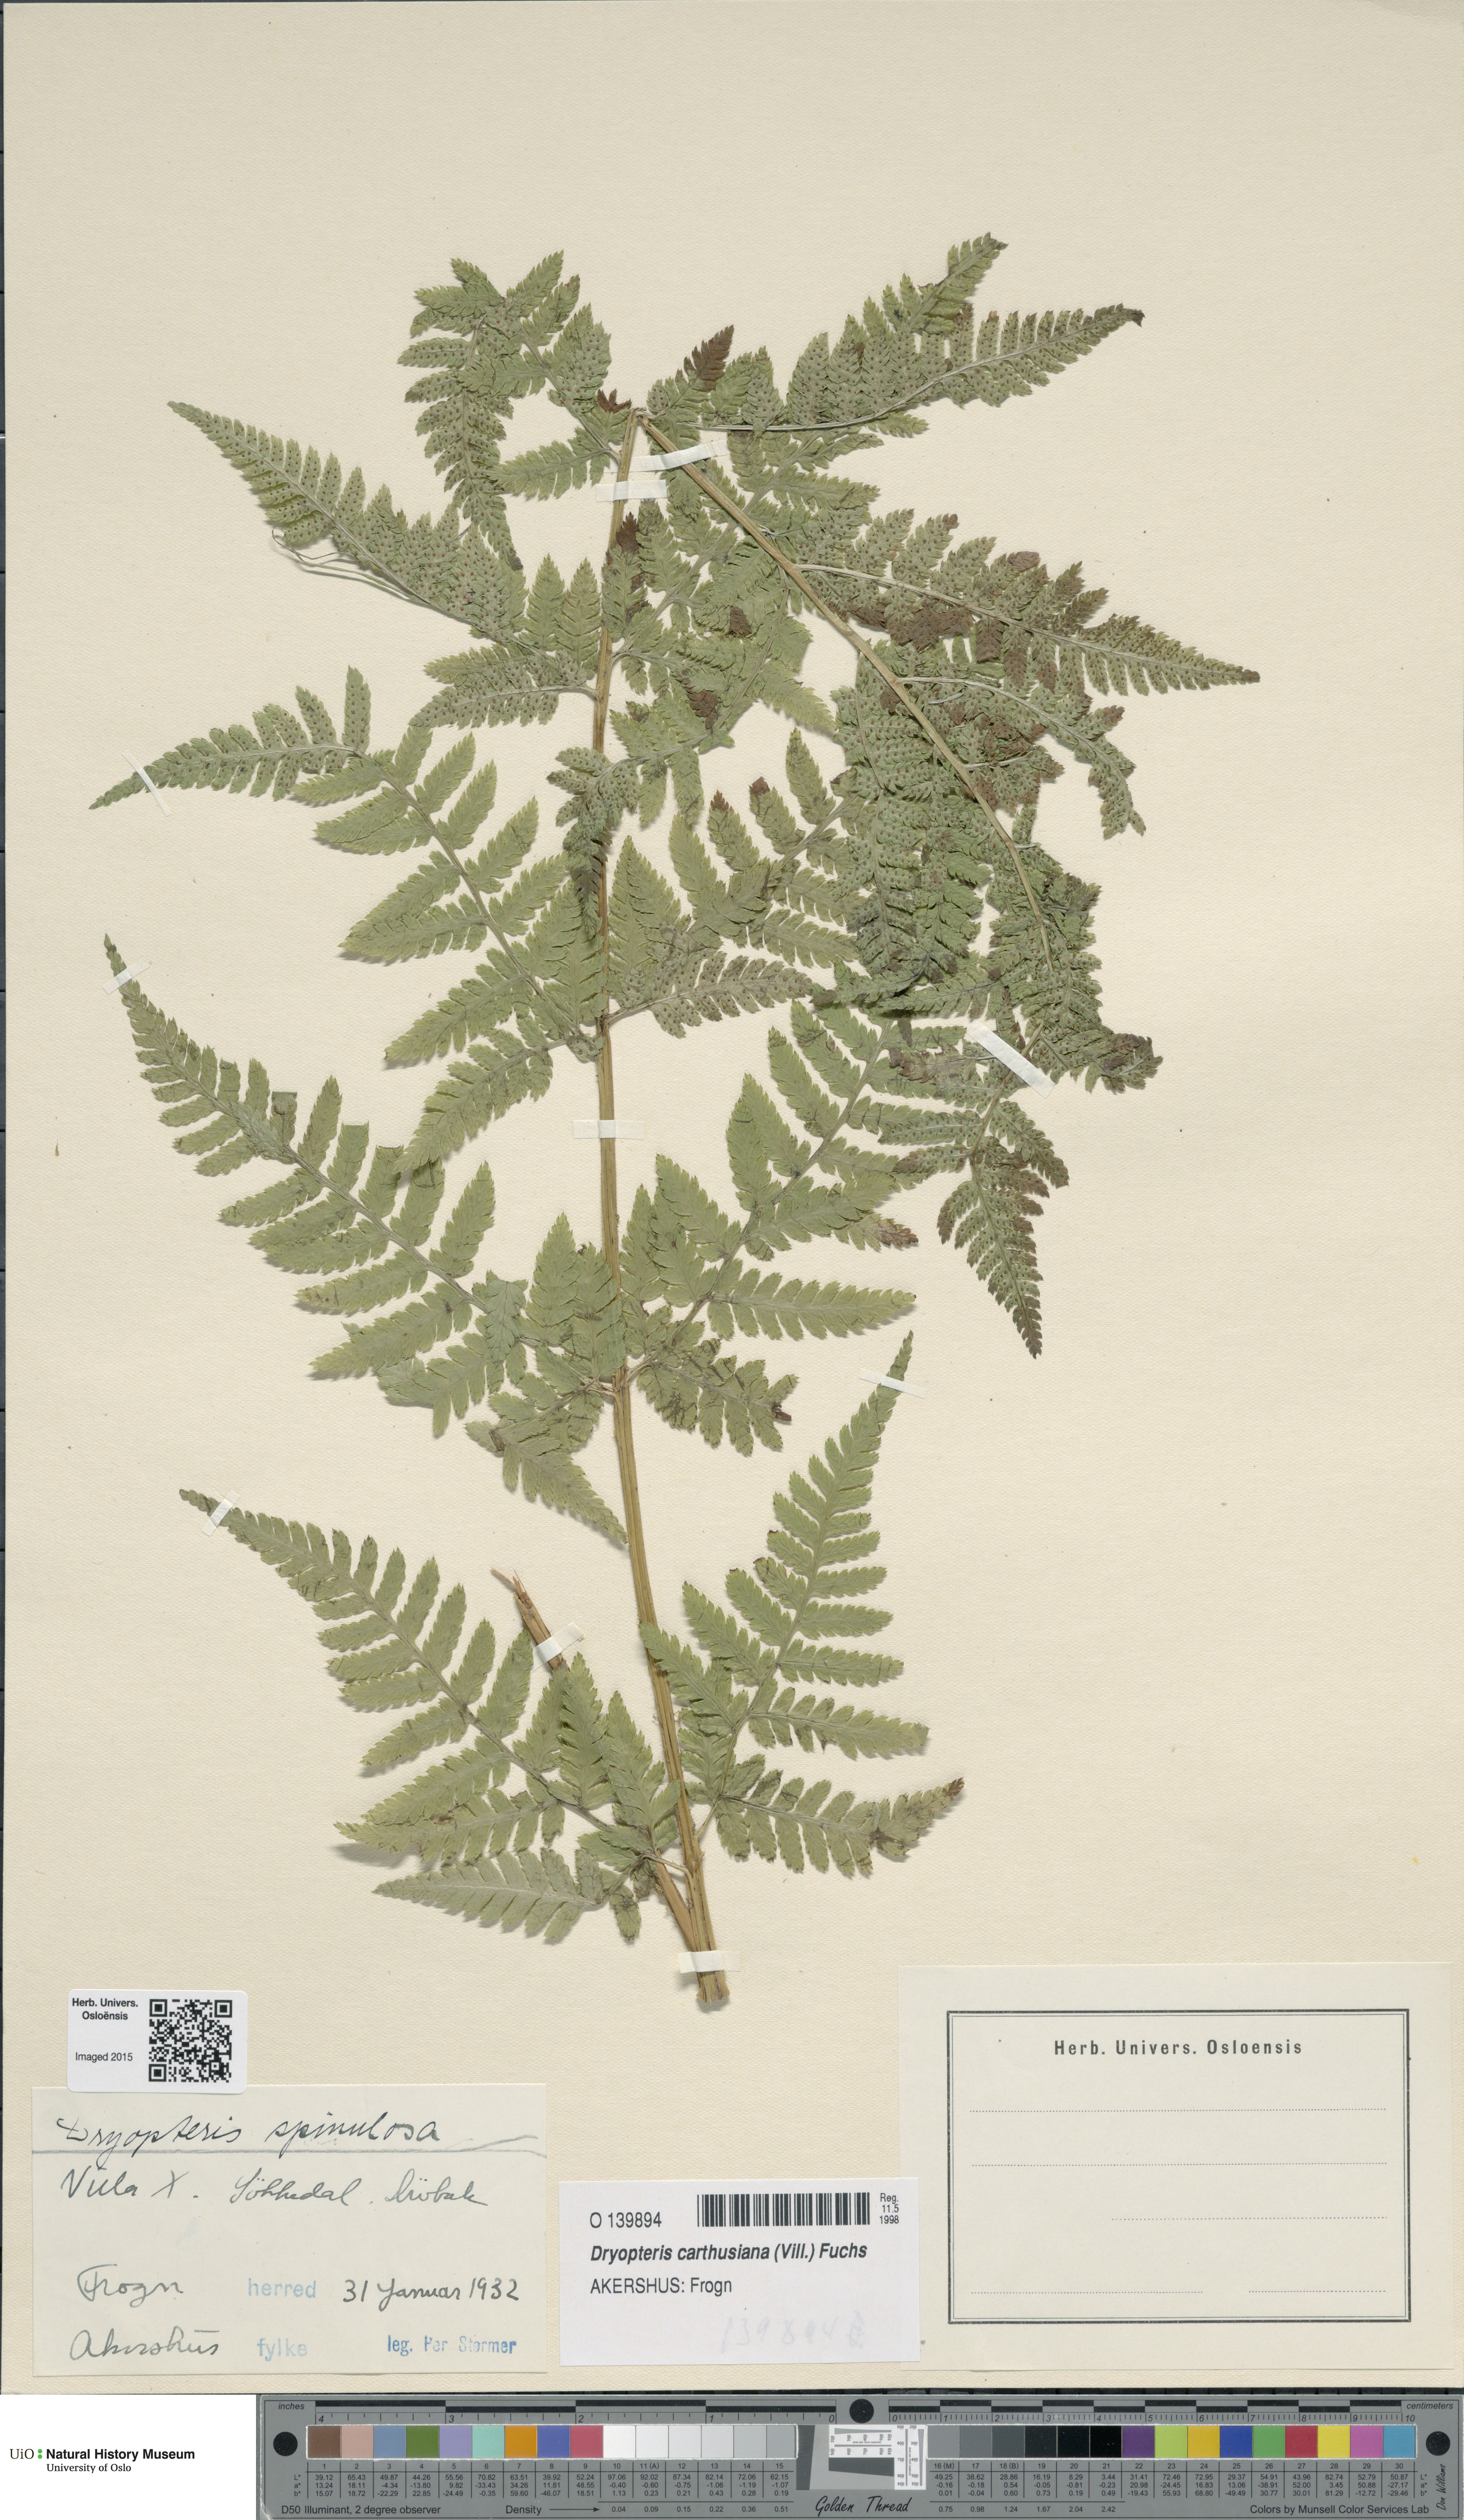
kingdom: Plantae
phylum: Tracheophyta
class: Polypodiopsida
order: Polypodiales
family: Dryopteridaceae
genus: Dryopteris
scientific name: Dryopteris carthusiana
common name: Narrow buckler-fern
